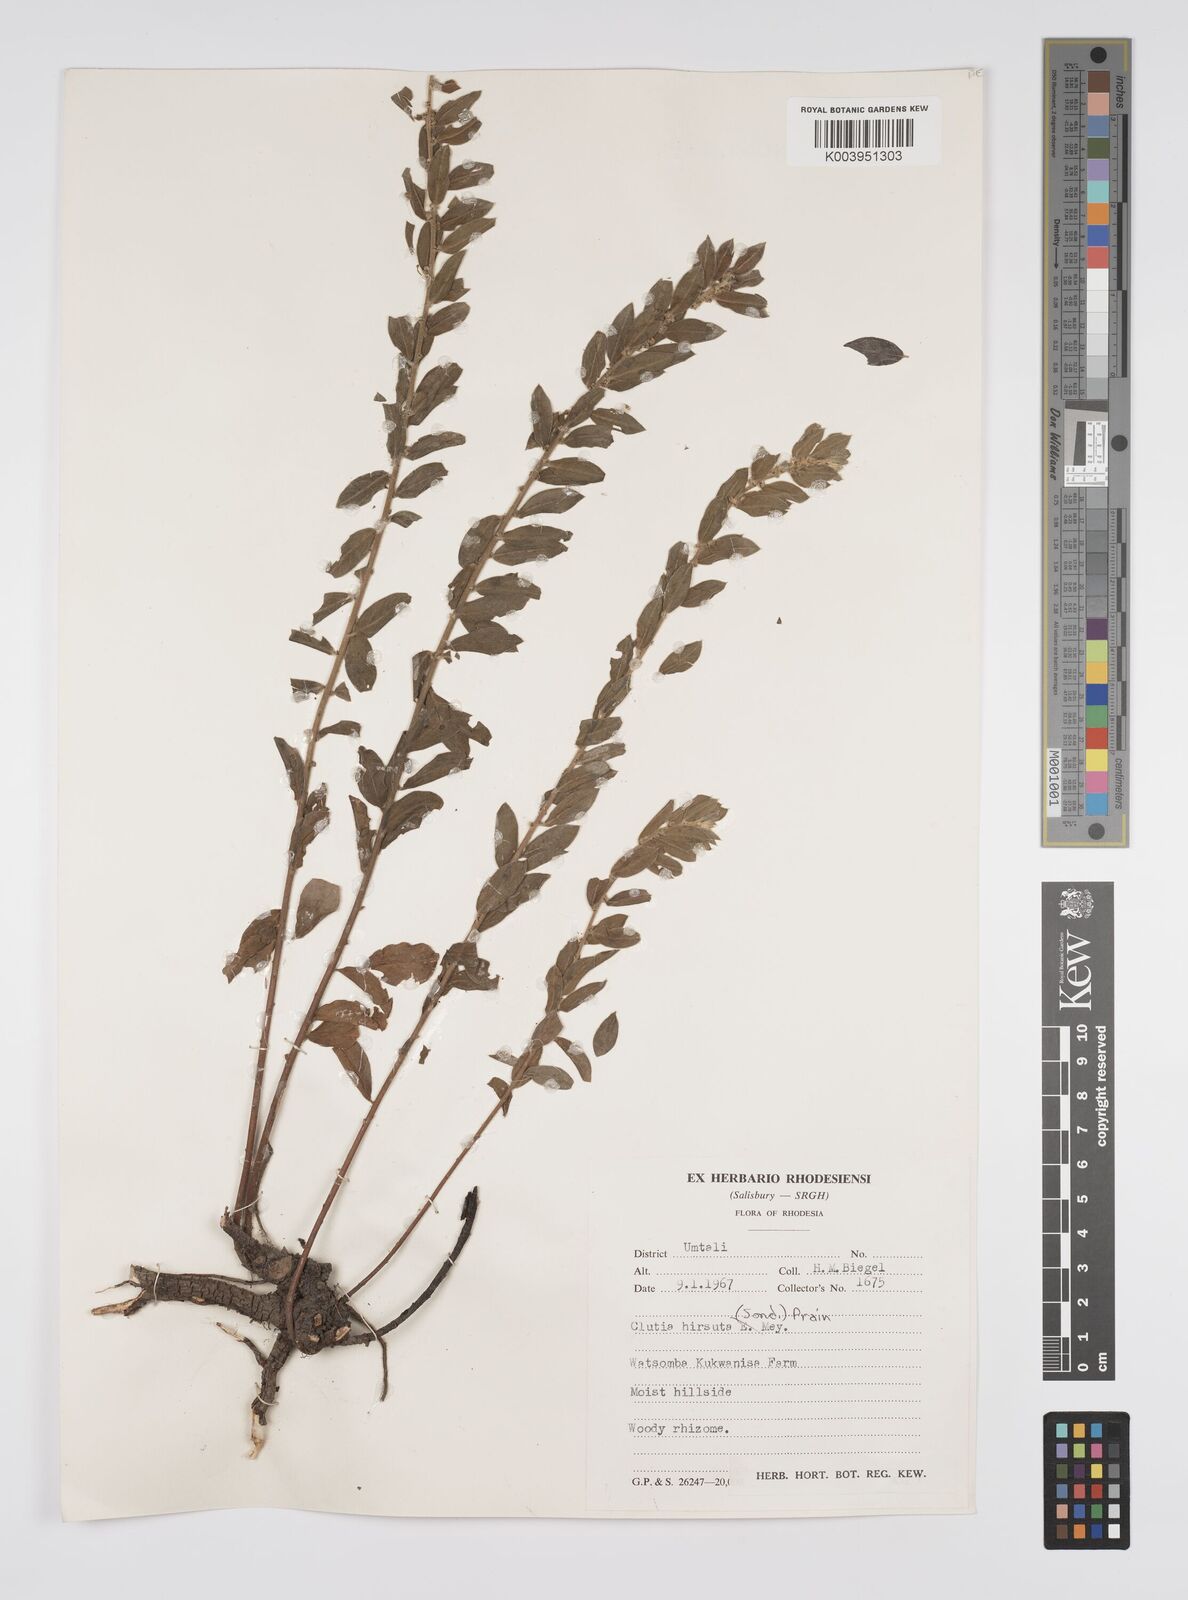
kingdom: Plantae
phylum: Tracheophyta
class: Magnoliopsida
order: Malpighiales
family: Peraceae
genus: Clutia
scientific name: Clutia hirsuta
